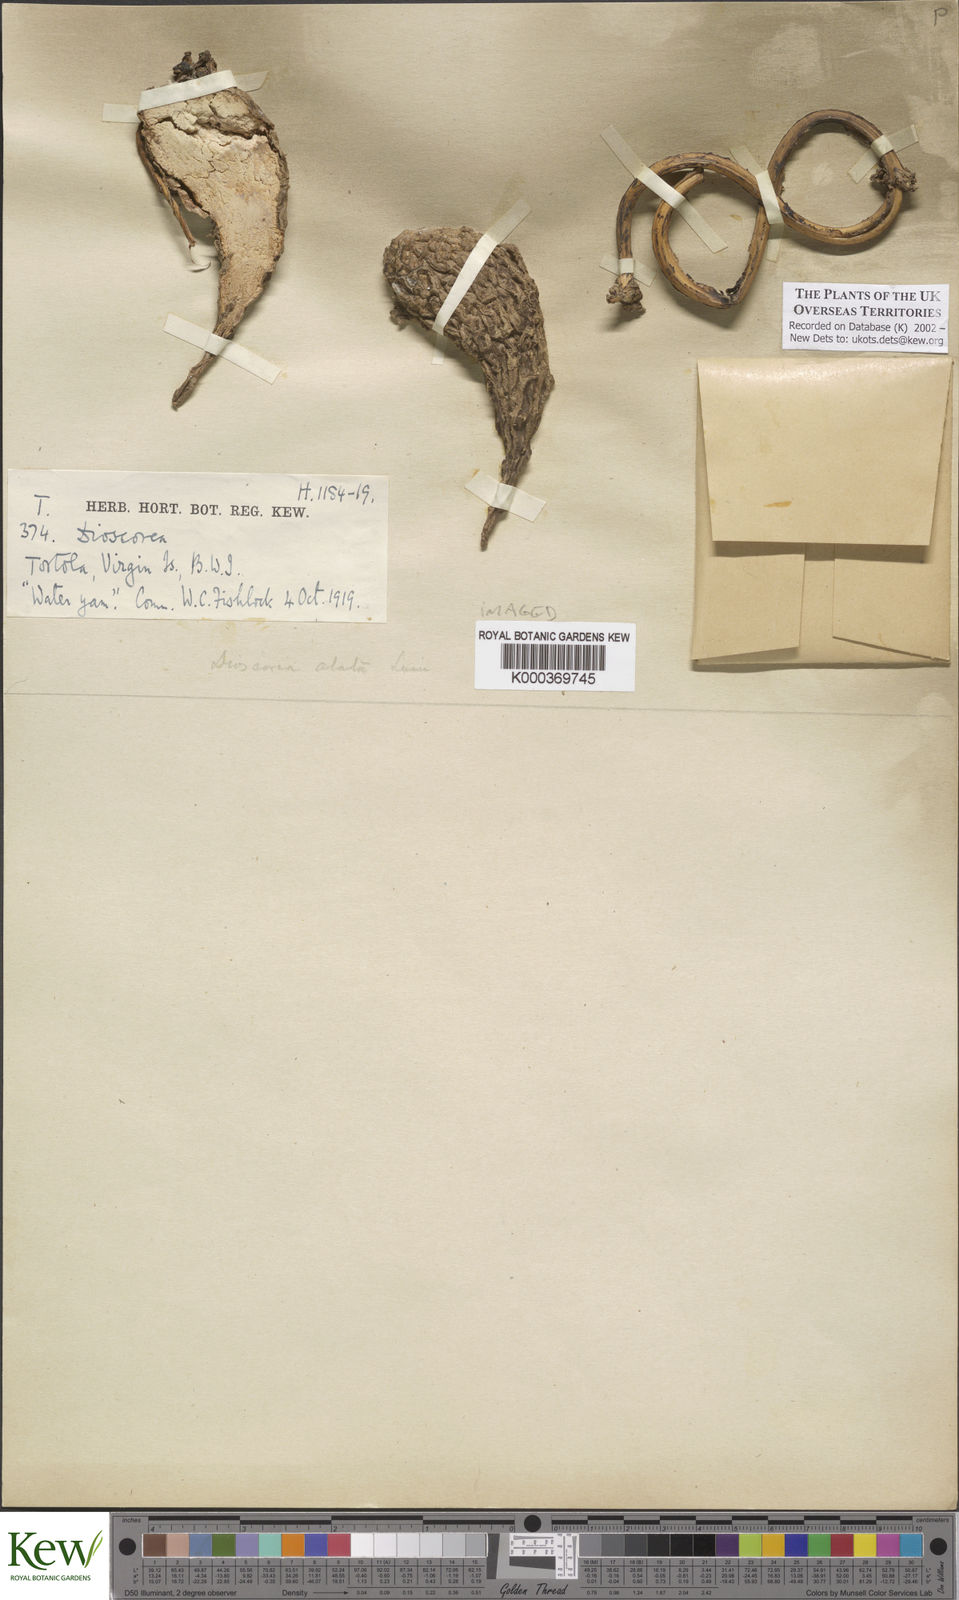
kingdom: Plantae
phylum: Tracheophyta
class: Liliopsida
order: Dioscoreales
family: Dioscoreaceae
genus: Dioscorea
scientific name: Dioscorea alata
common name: Water yam
